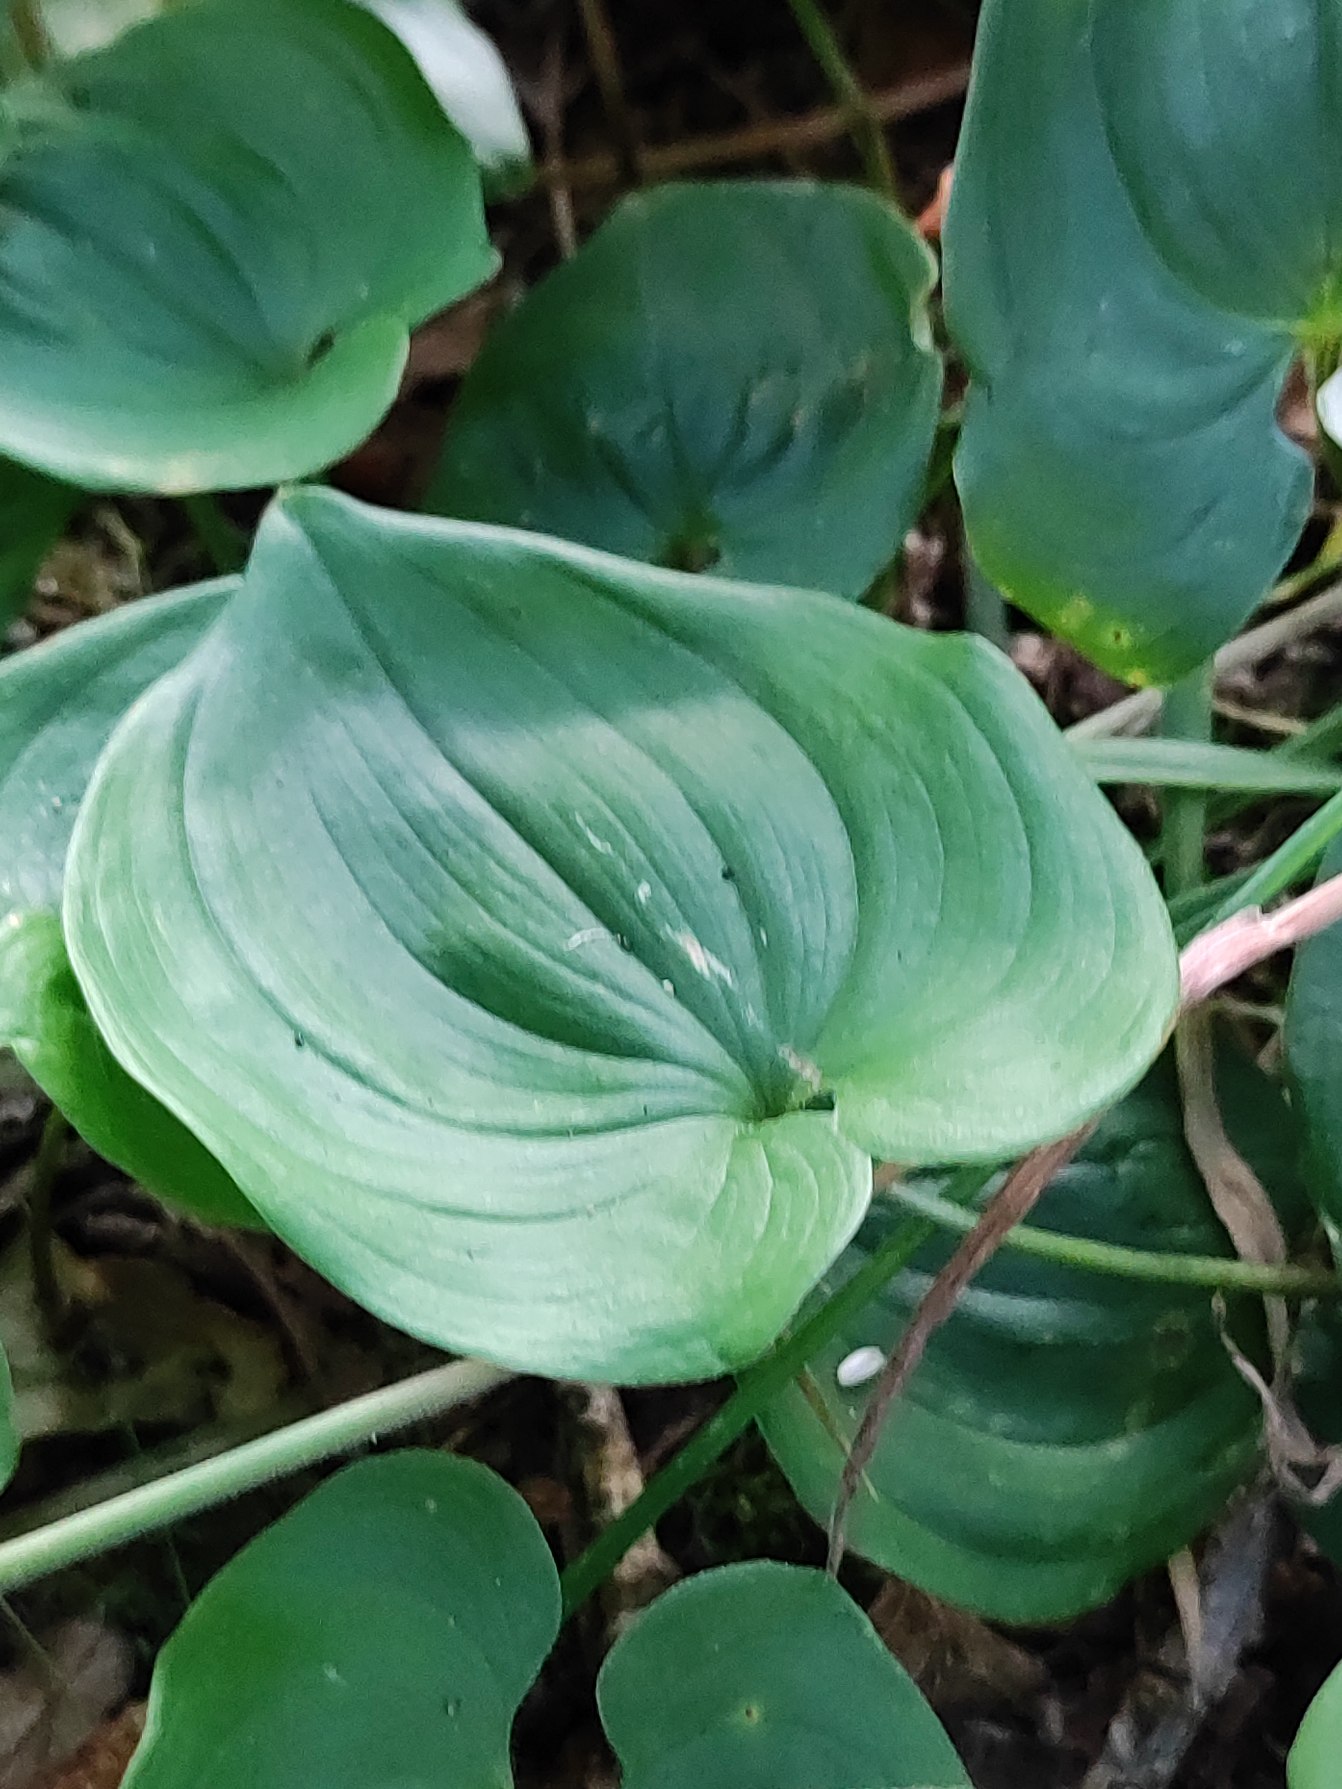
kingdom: Plantae
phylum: Tracheophyta
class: Liliopsida
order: Asparagales
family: Asparagaceae
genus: Maianthemum
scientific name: Maianthemum bifolium
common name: Majblomst
